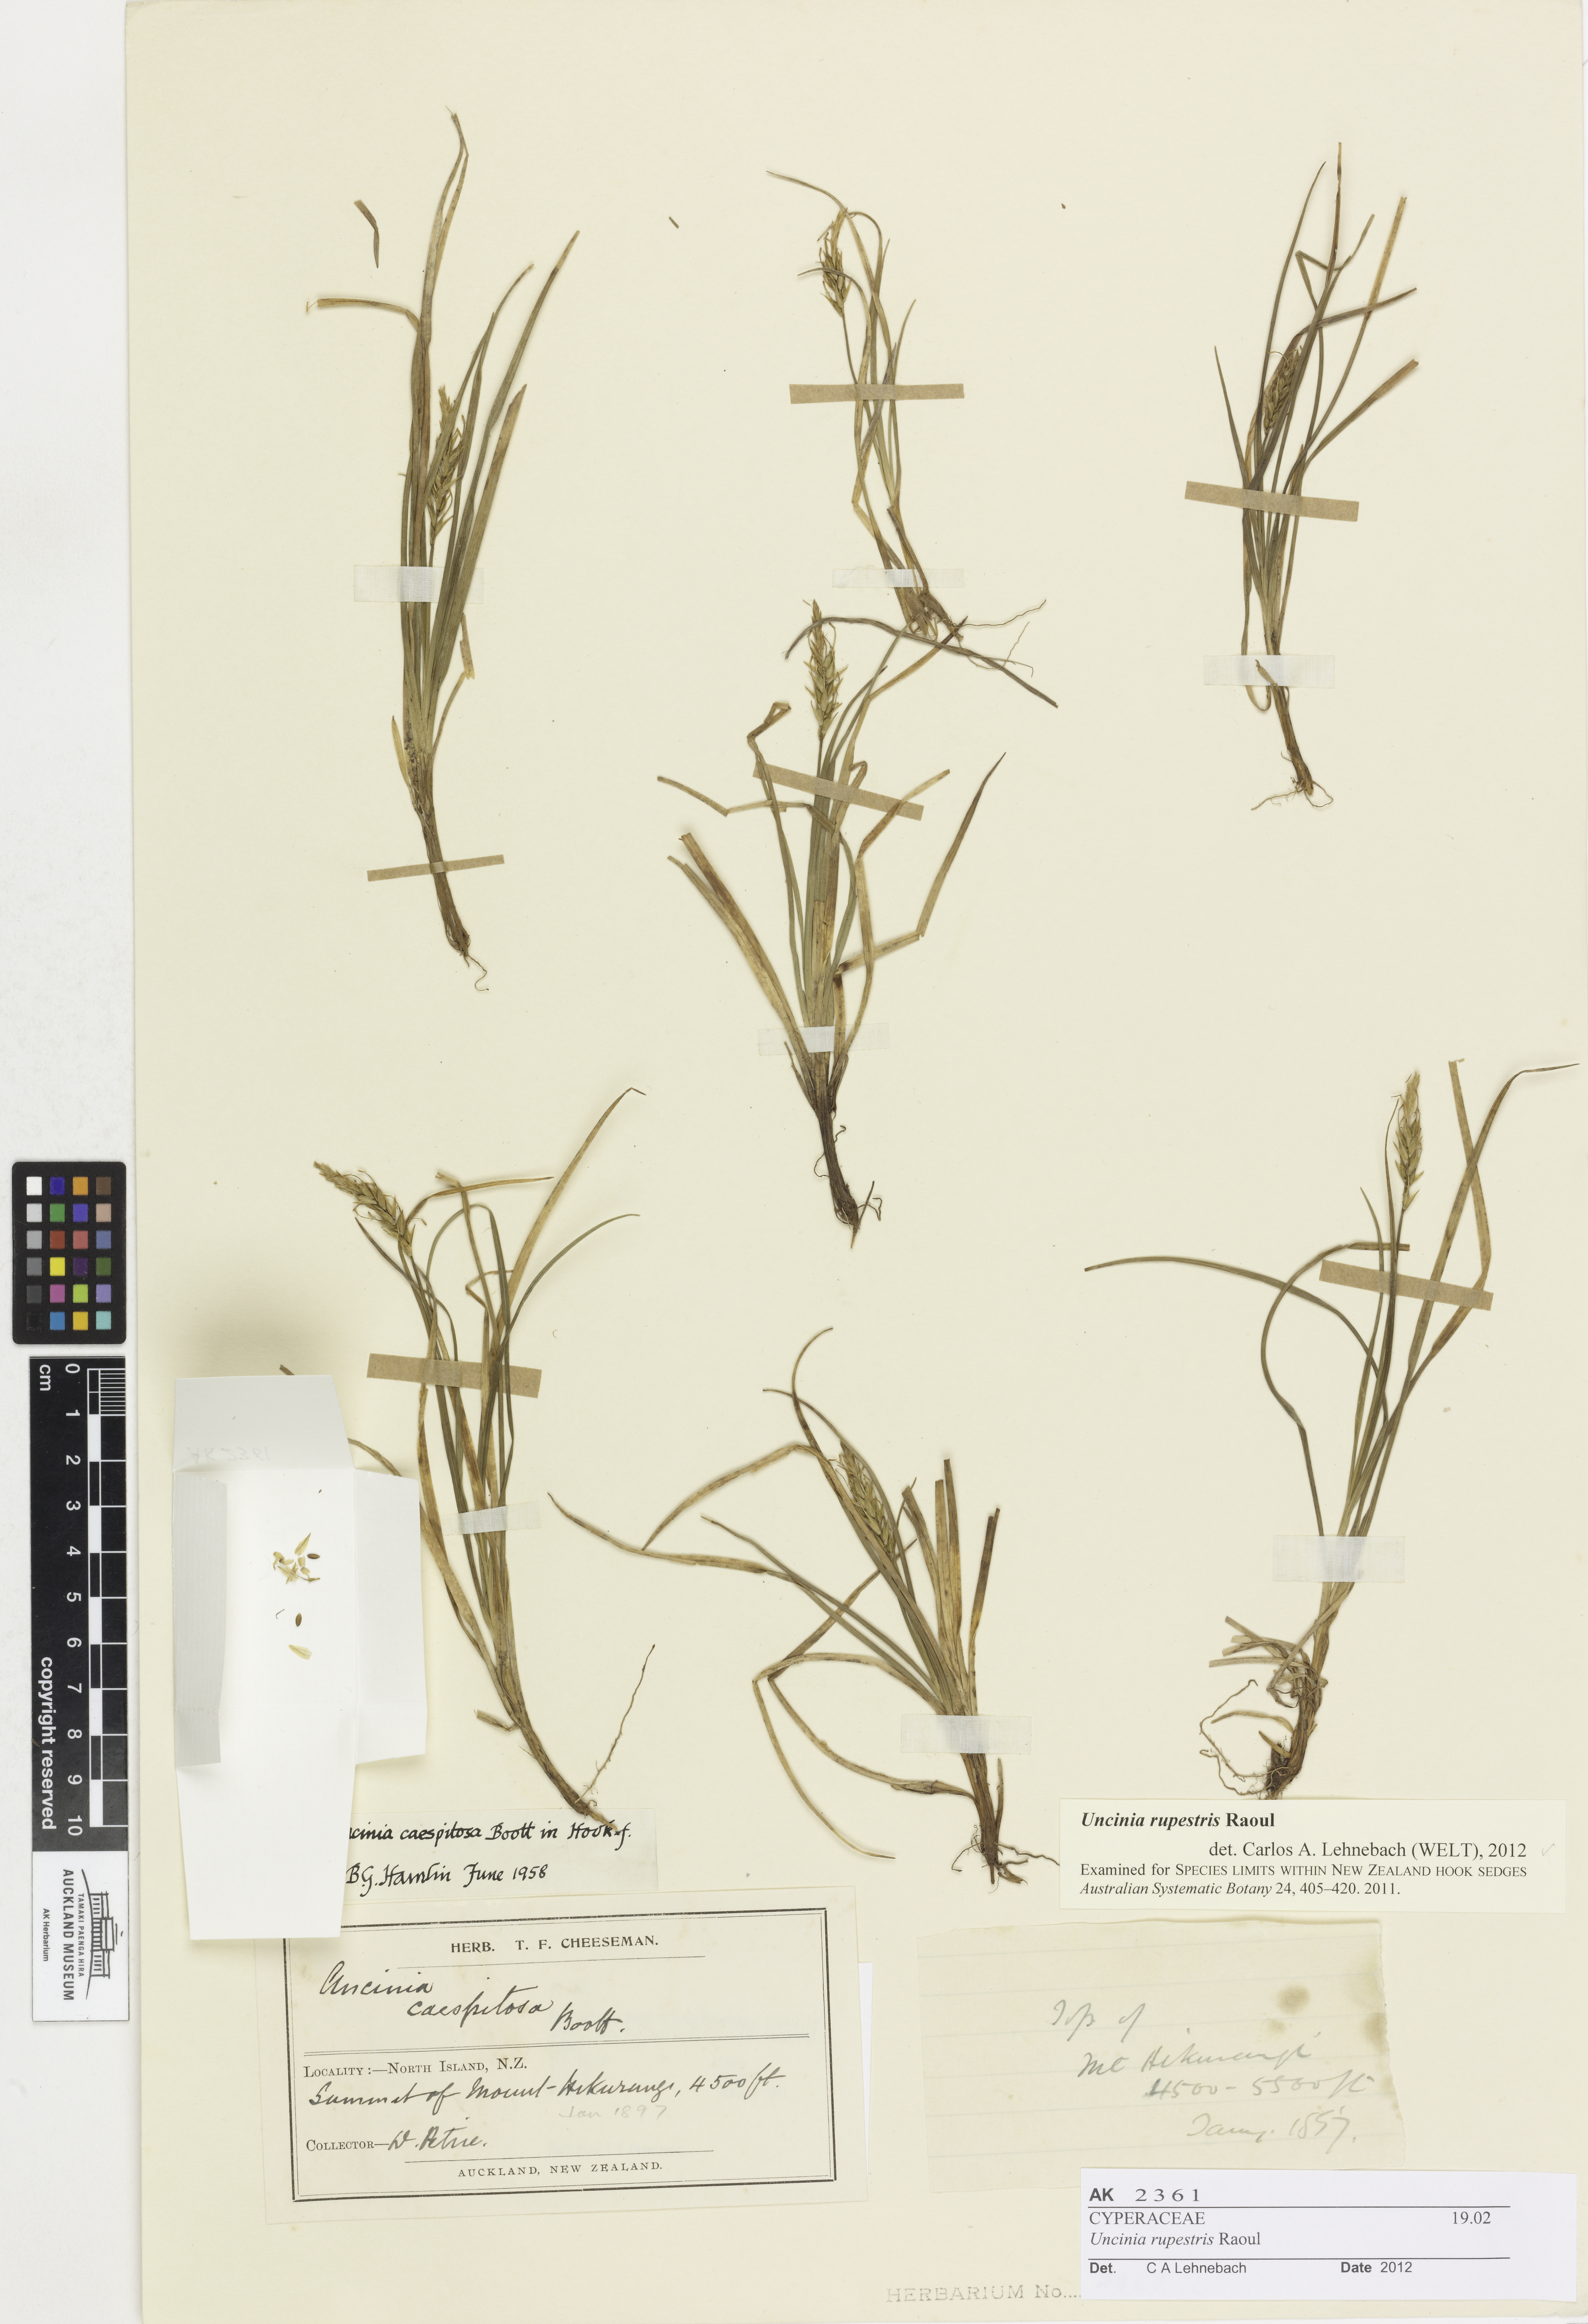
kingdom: Plantae
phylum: Tracheophyta
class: Liliopsida
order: Poales
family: Cyperaceae
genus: Carex
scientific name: Carex horizontalis
